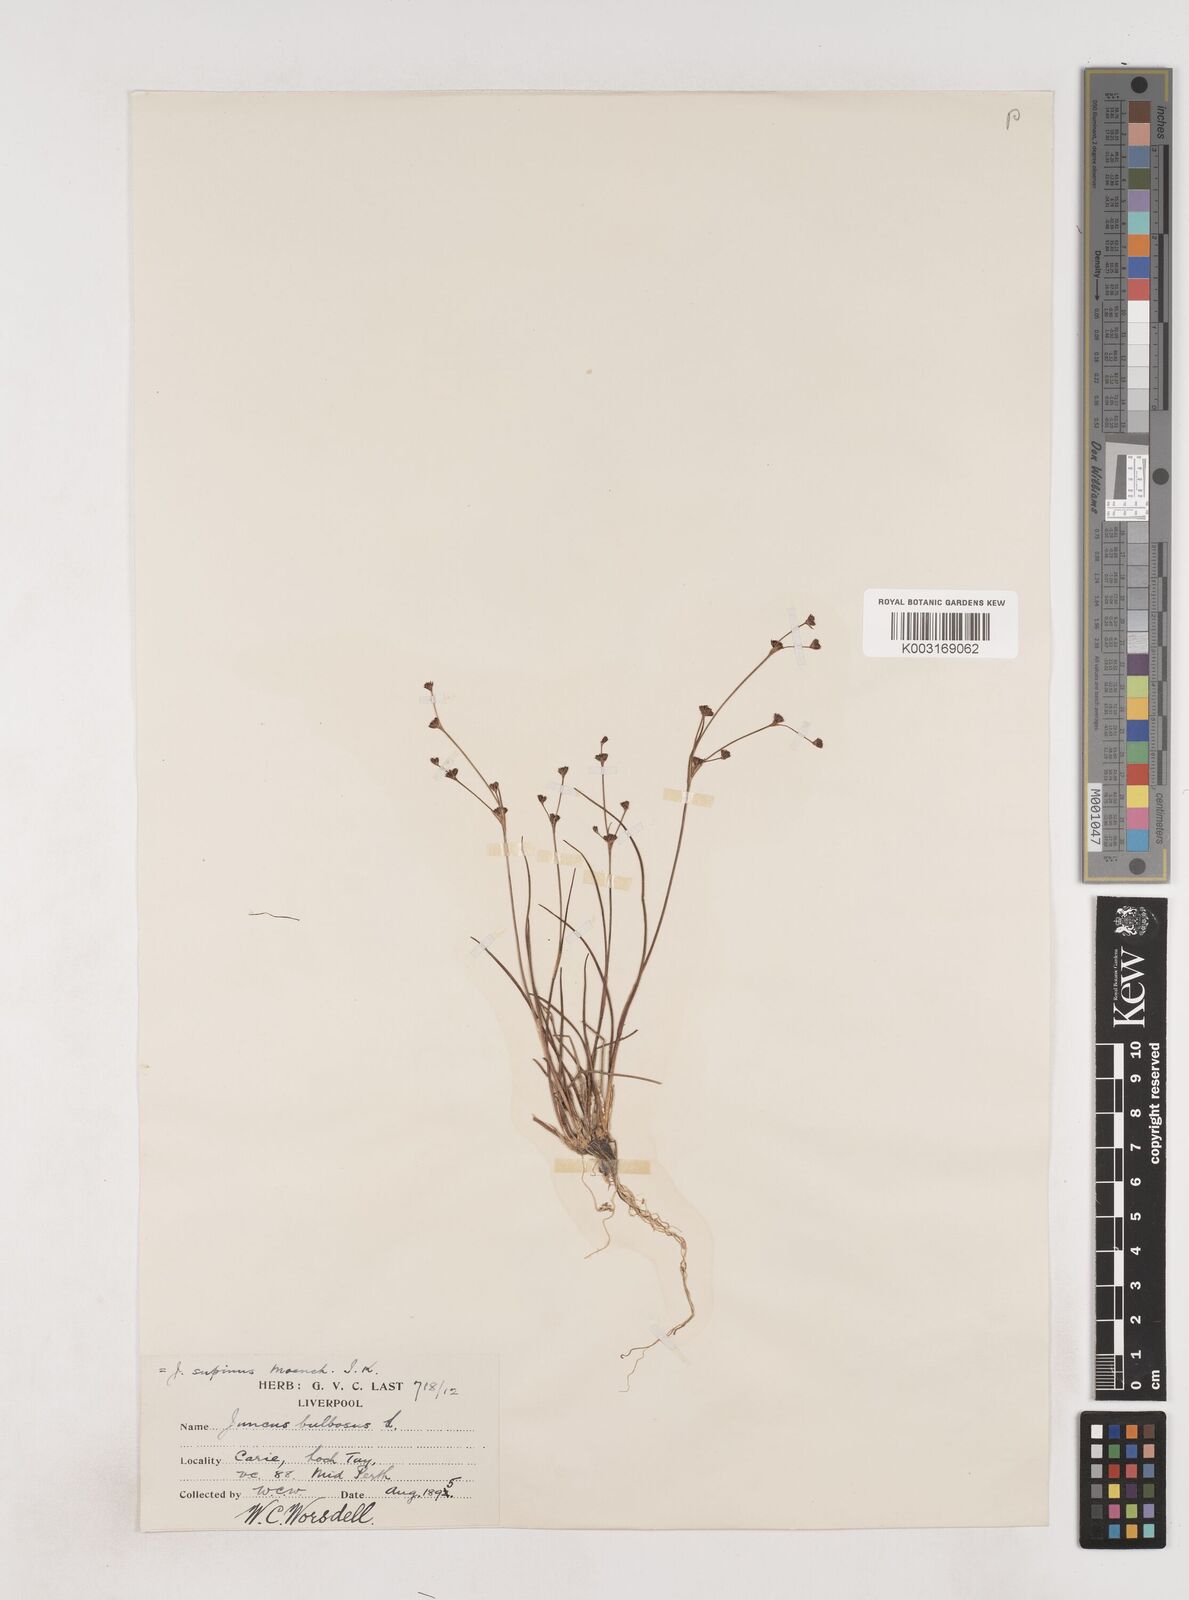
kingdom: Plantae
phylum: Tracheophyta
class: Liliopsida
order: Poales
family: Juncaceae
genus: Juncus
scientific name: Juncus bulbosus
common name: Bulbous rush
